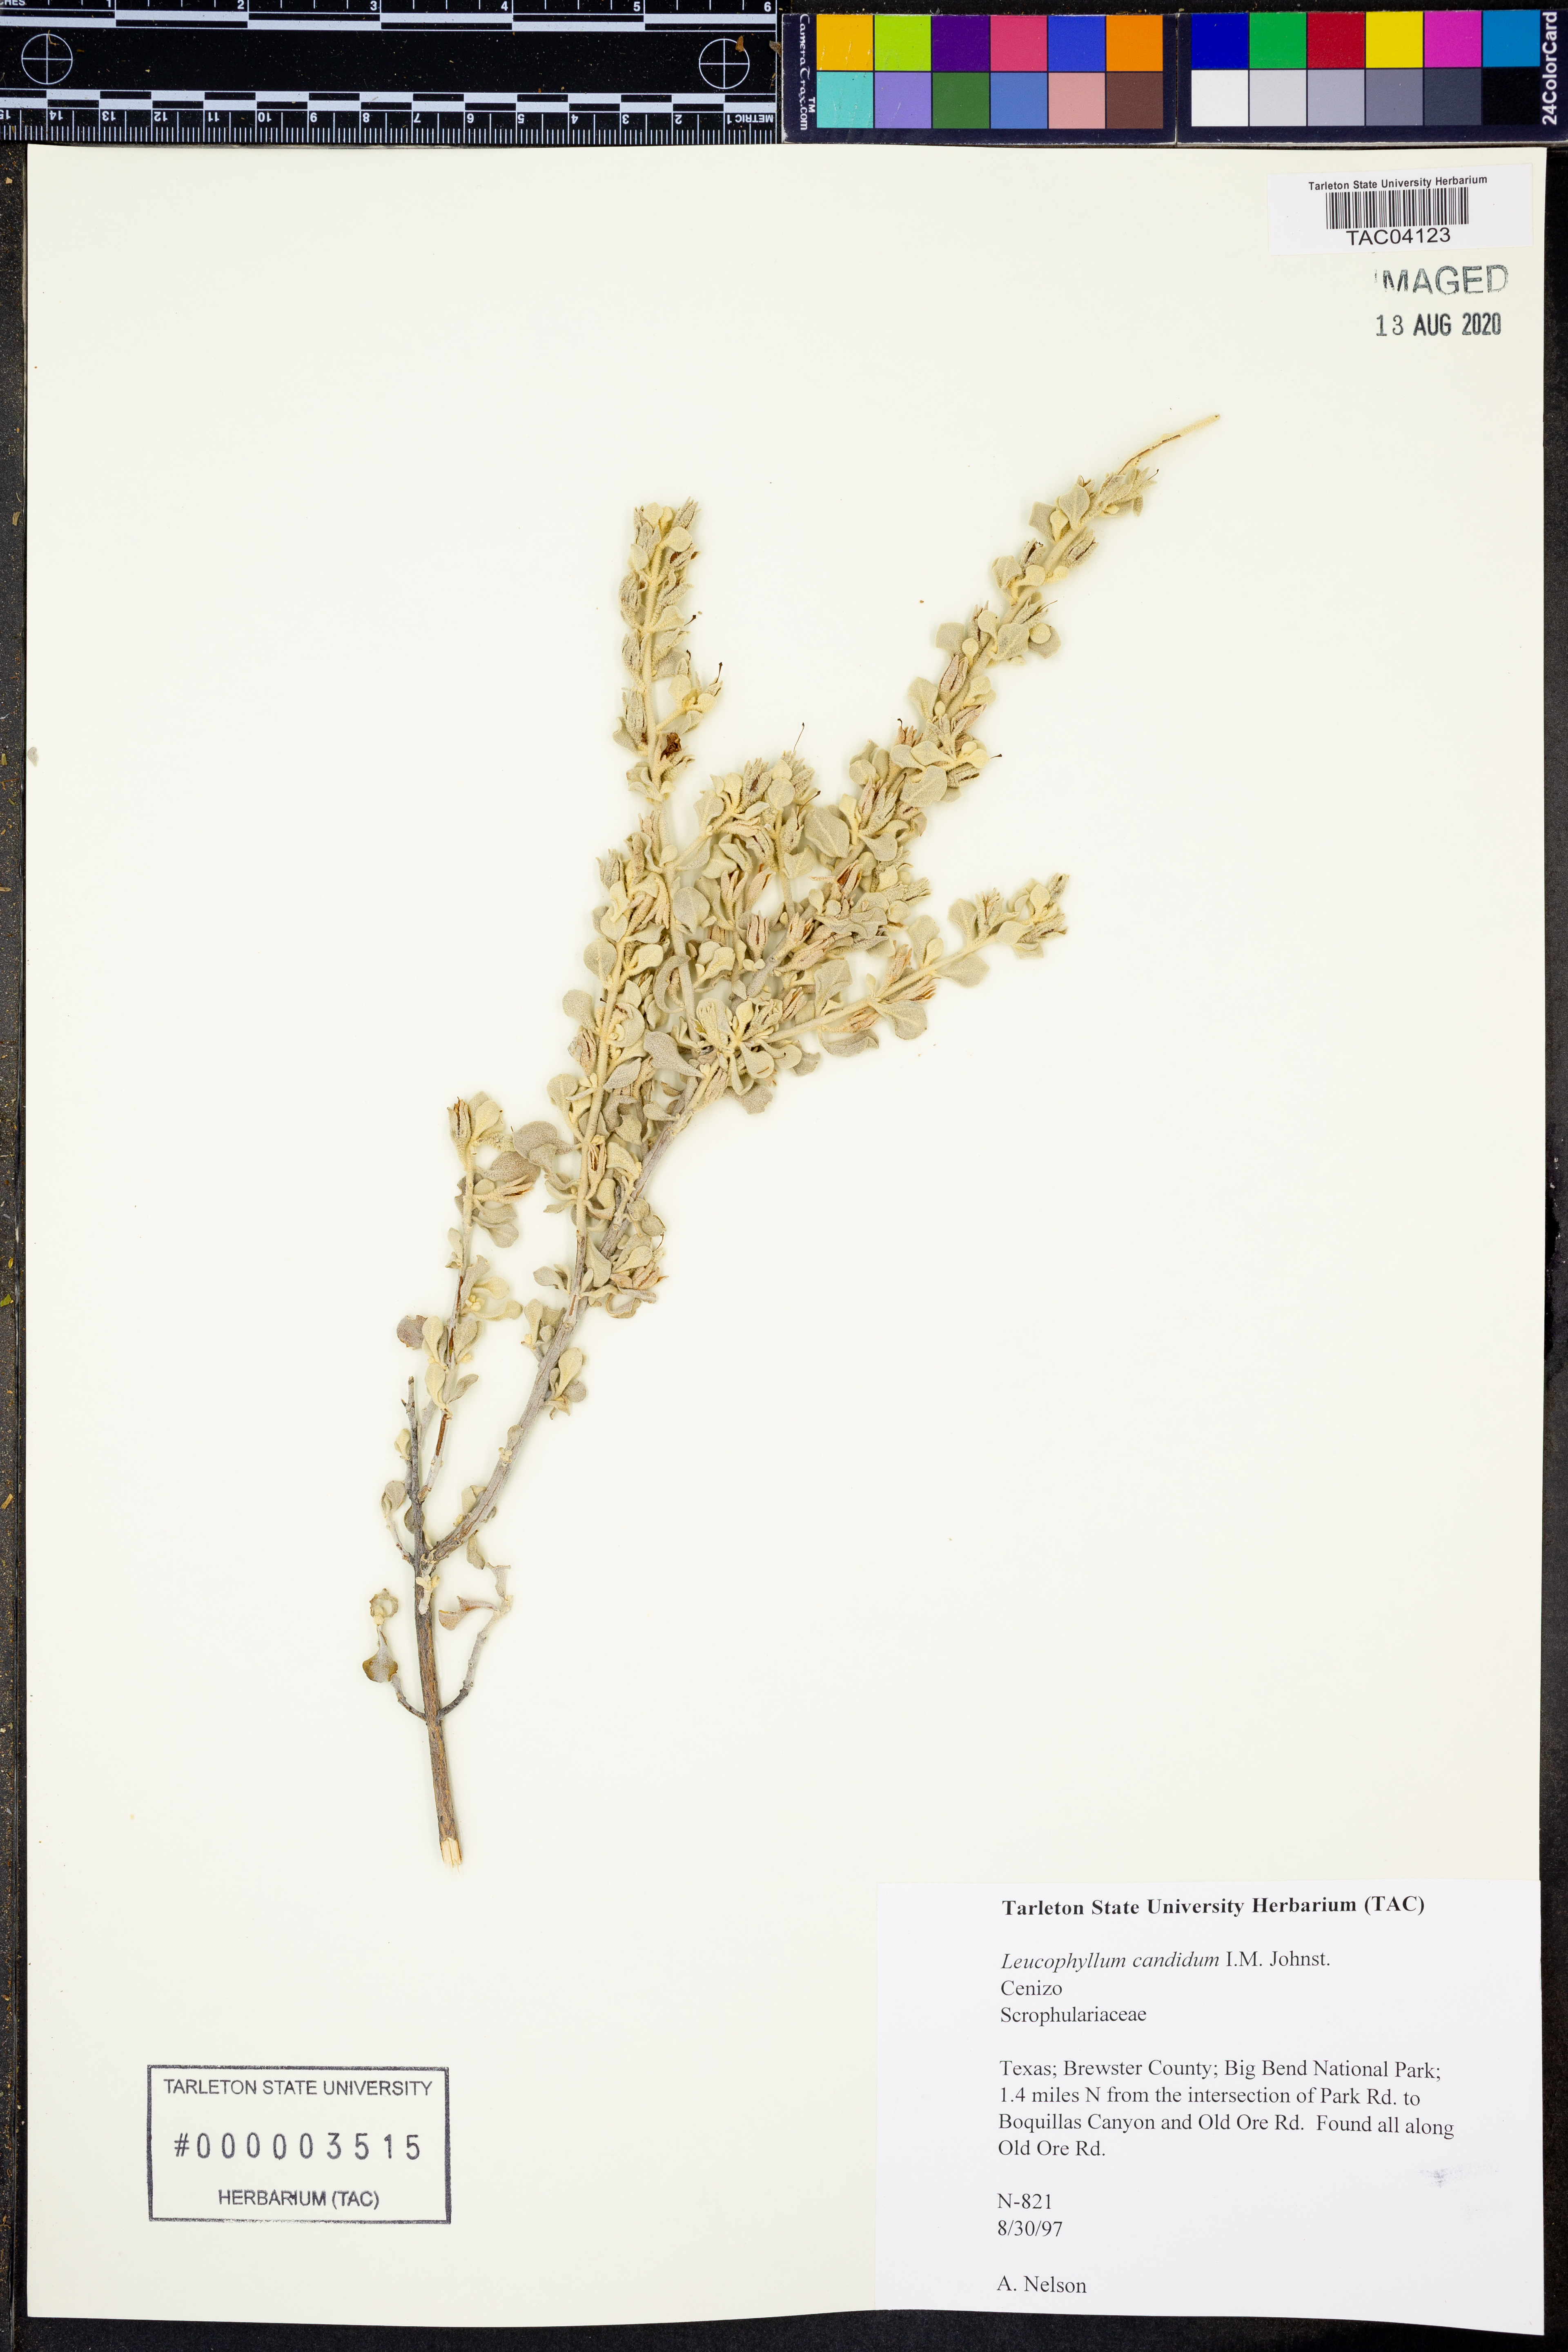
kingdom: Plantae
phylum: Tracheophyta
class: Magnoliopsida
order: Lamiales
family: Scrophulariaceae
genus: Leucophyllum
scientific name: Leucophyllum candidum
